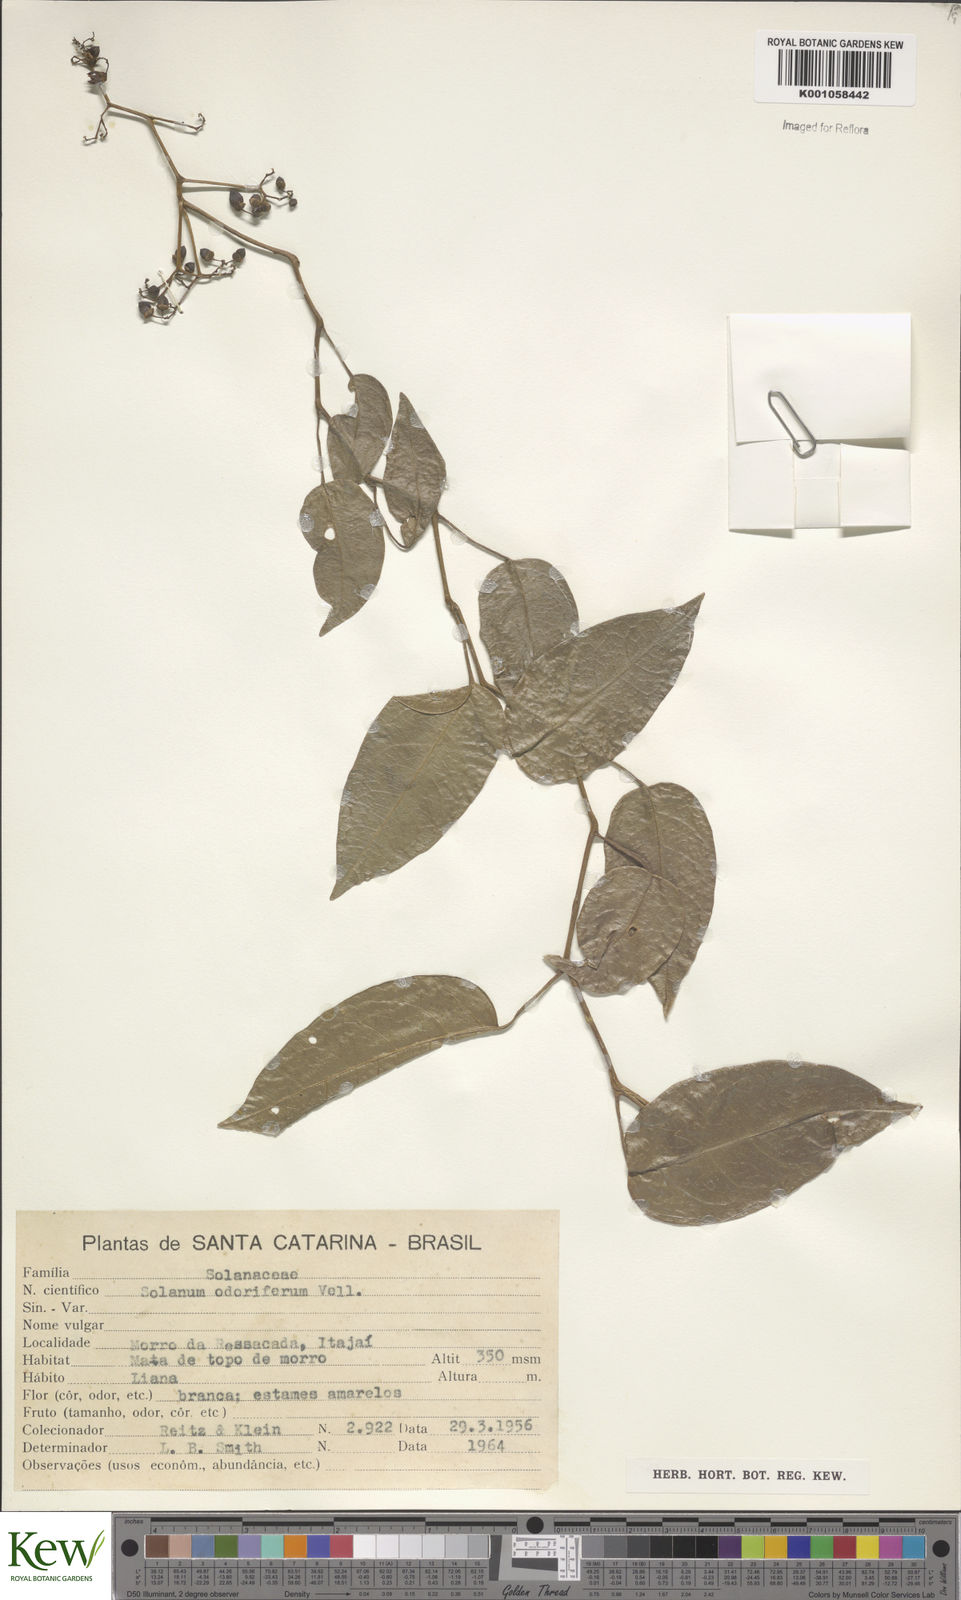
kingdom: Plantae
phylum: Tracheophyta
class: Magnoliopsida
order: Solanales
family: Solanaceae
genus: Solanum
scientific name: Solanum odoriferum
